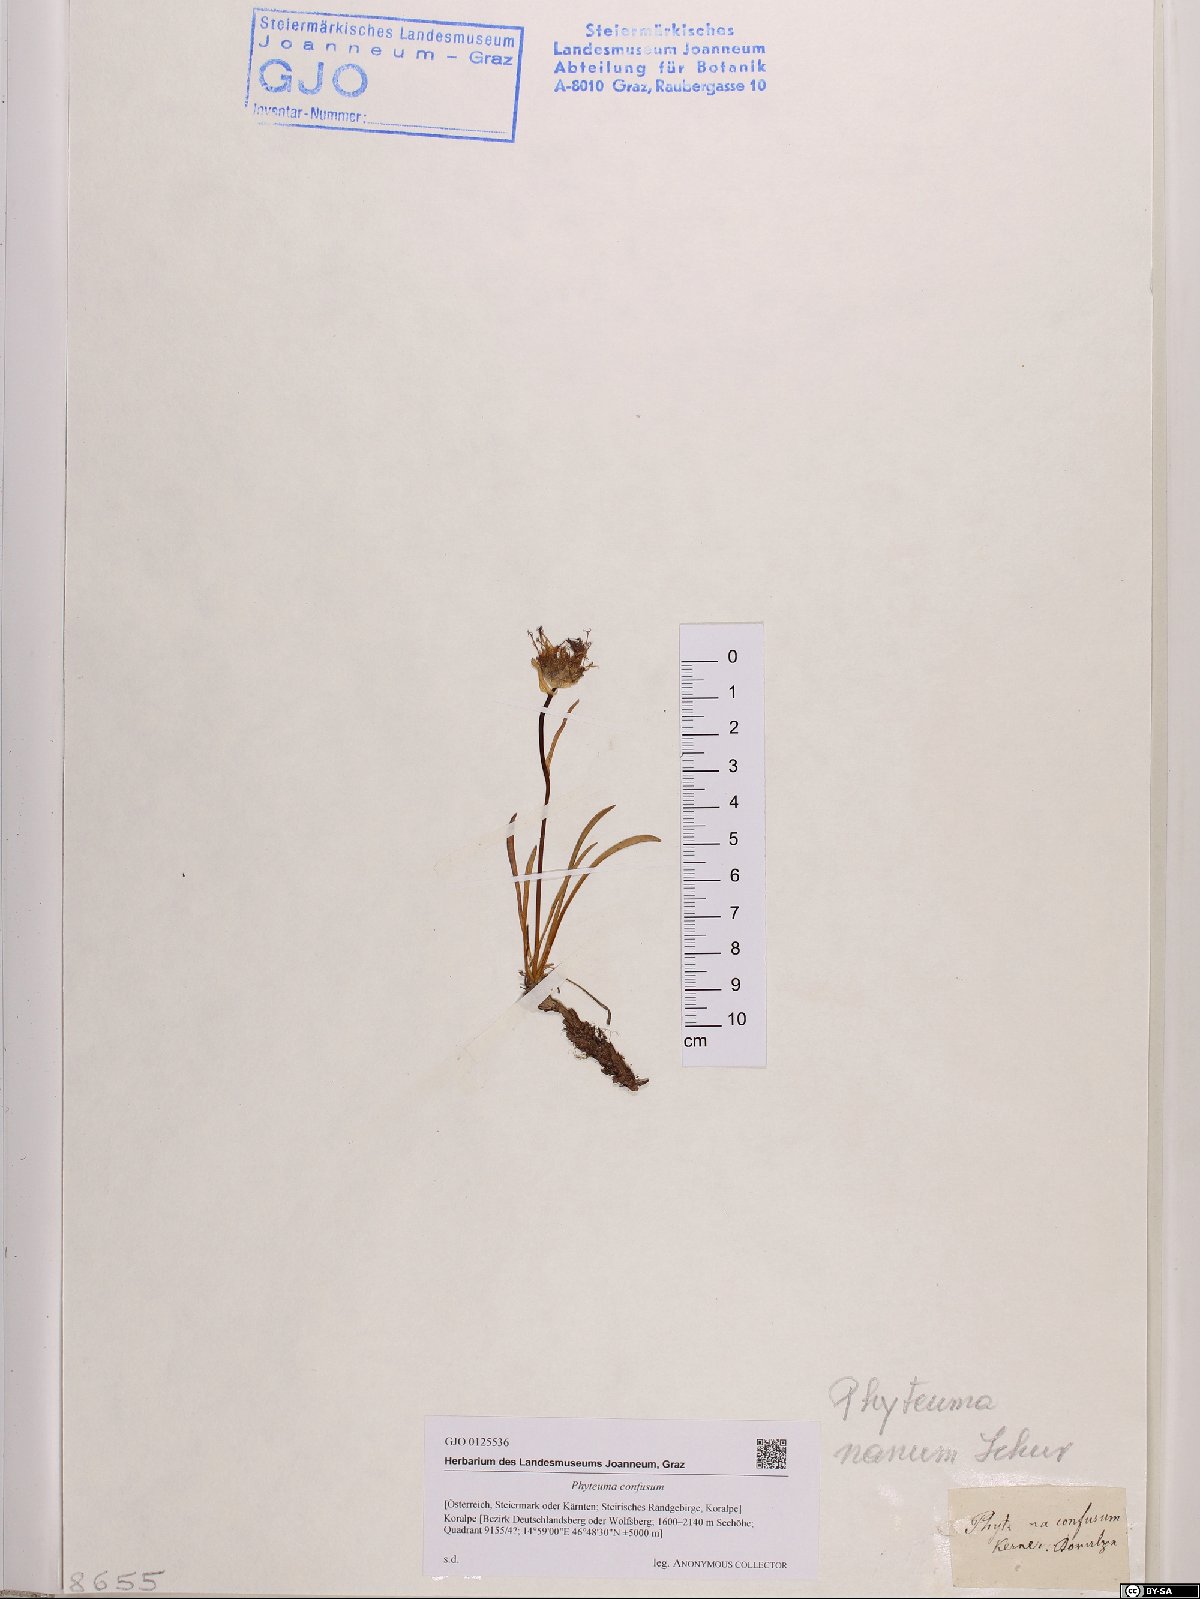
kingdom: Plantae
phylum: Tracheophyta
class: Magnoliopsida
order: Asterales
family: Campanulaceae
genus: Phyteuma
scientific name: Phyteuma confusum
